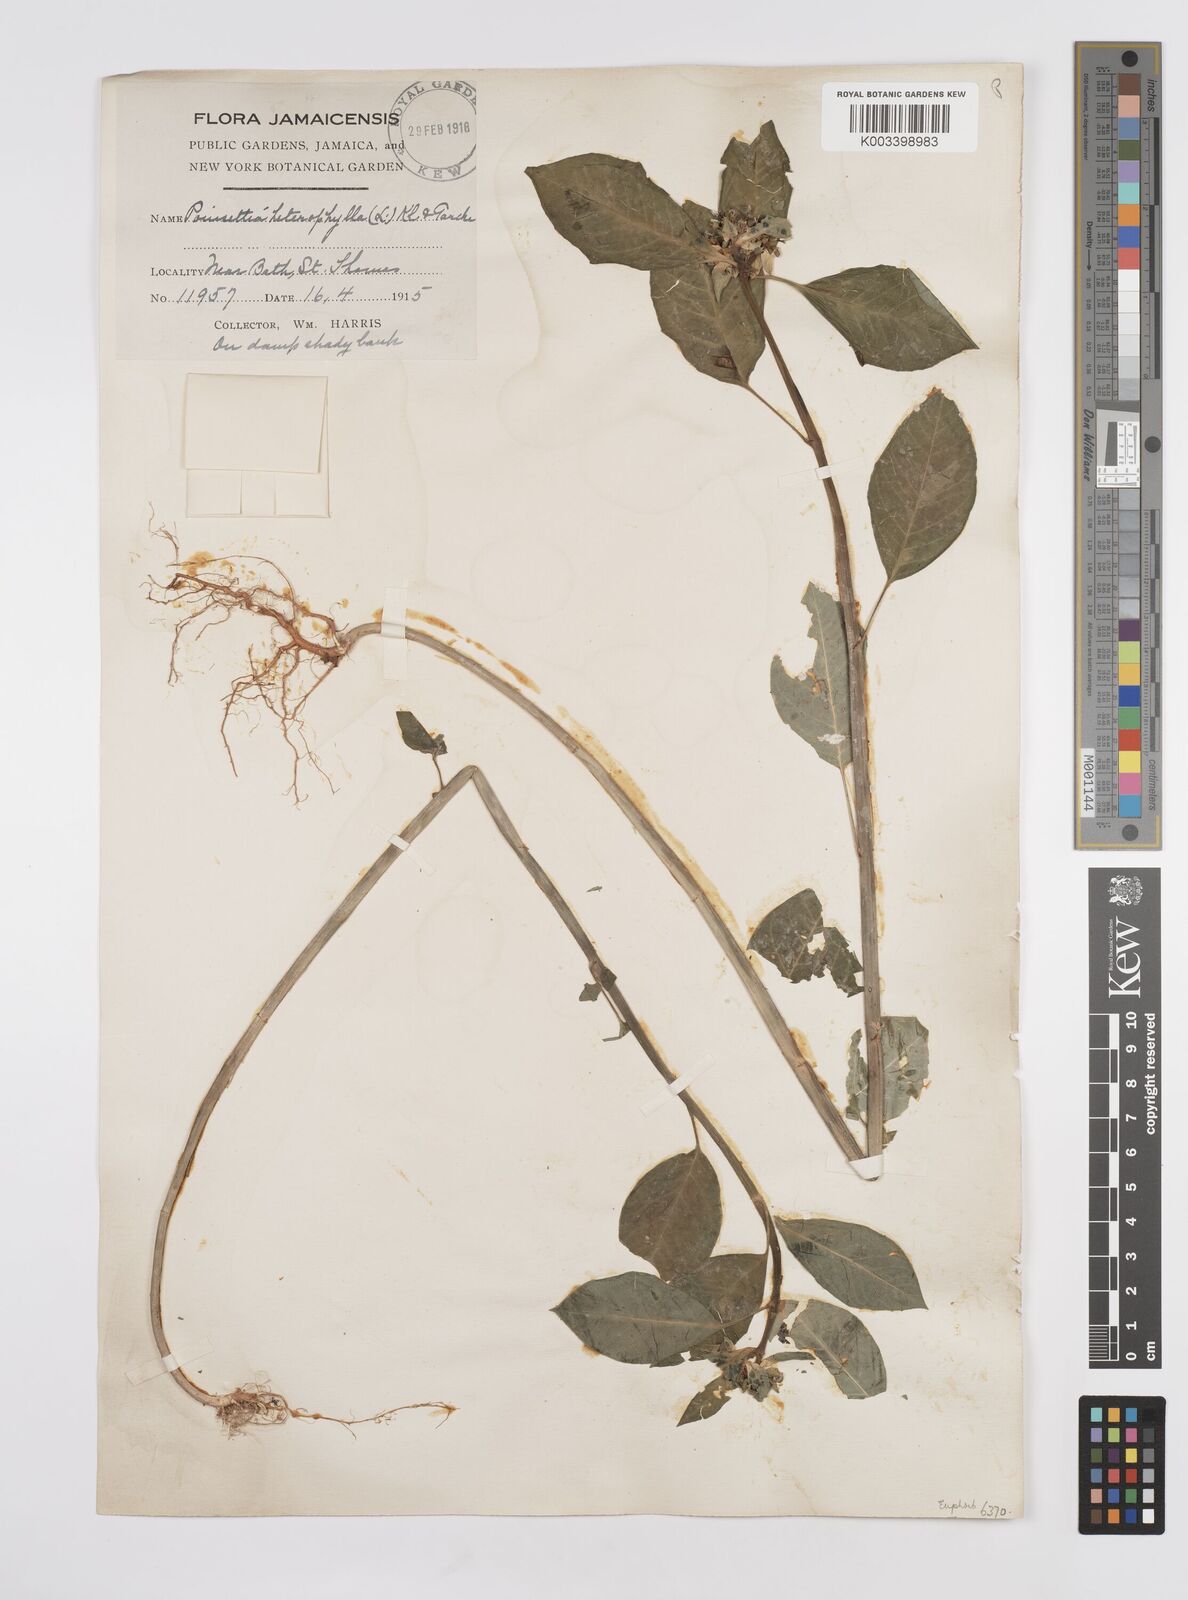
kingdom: Plantae
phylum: Tracheophyta
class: Magnoliopsida
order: Malpighiales
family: Euphorbiaceae
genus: Euphorbia
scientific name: Euphorbia heterophylla
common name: Mexican fireplant
